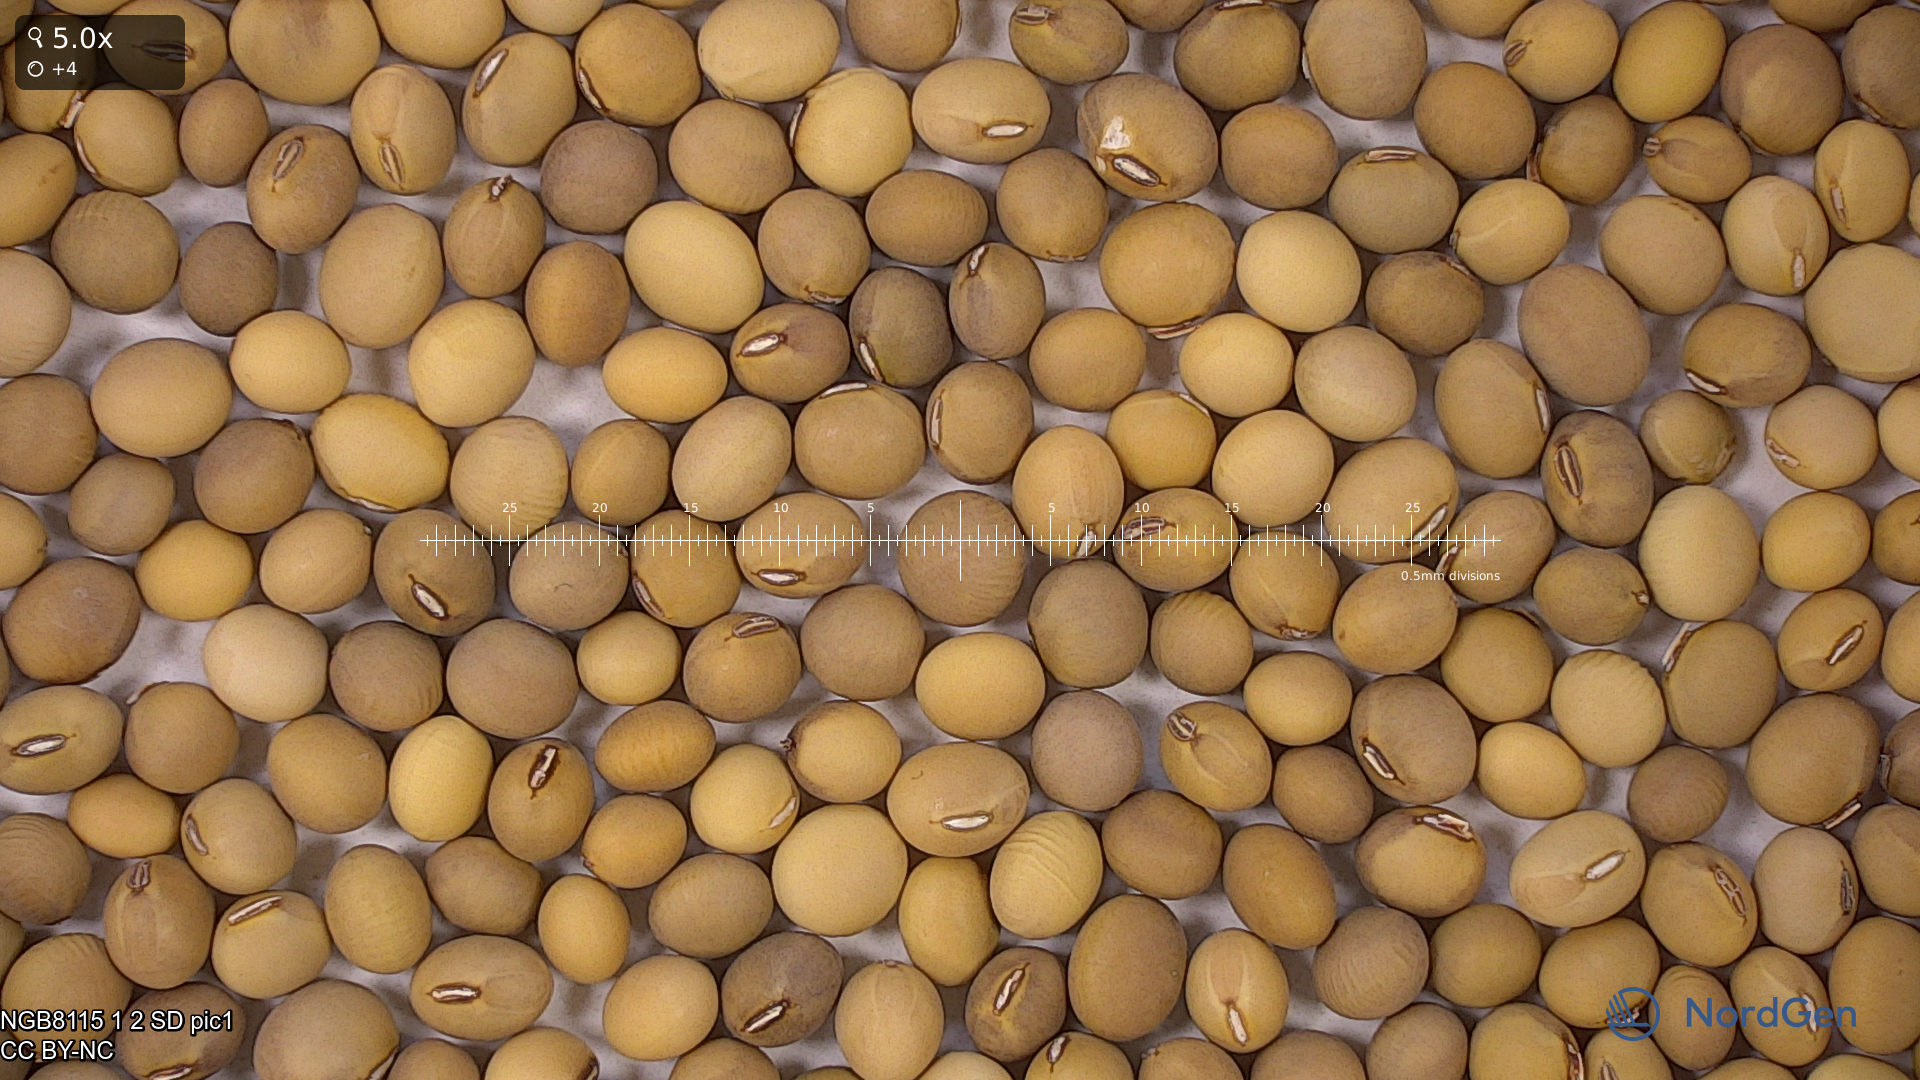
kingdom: Plantae
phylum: Tracheophyta
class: Magnoliopsida
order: Fabales
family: Fabaceae
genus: Glycine
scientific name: Glycine max
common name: Soya-bean
